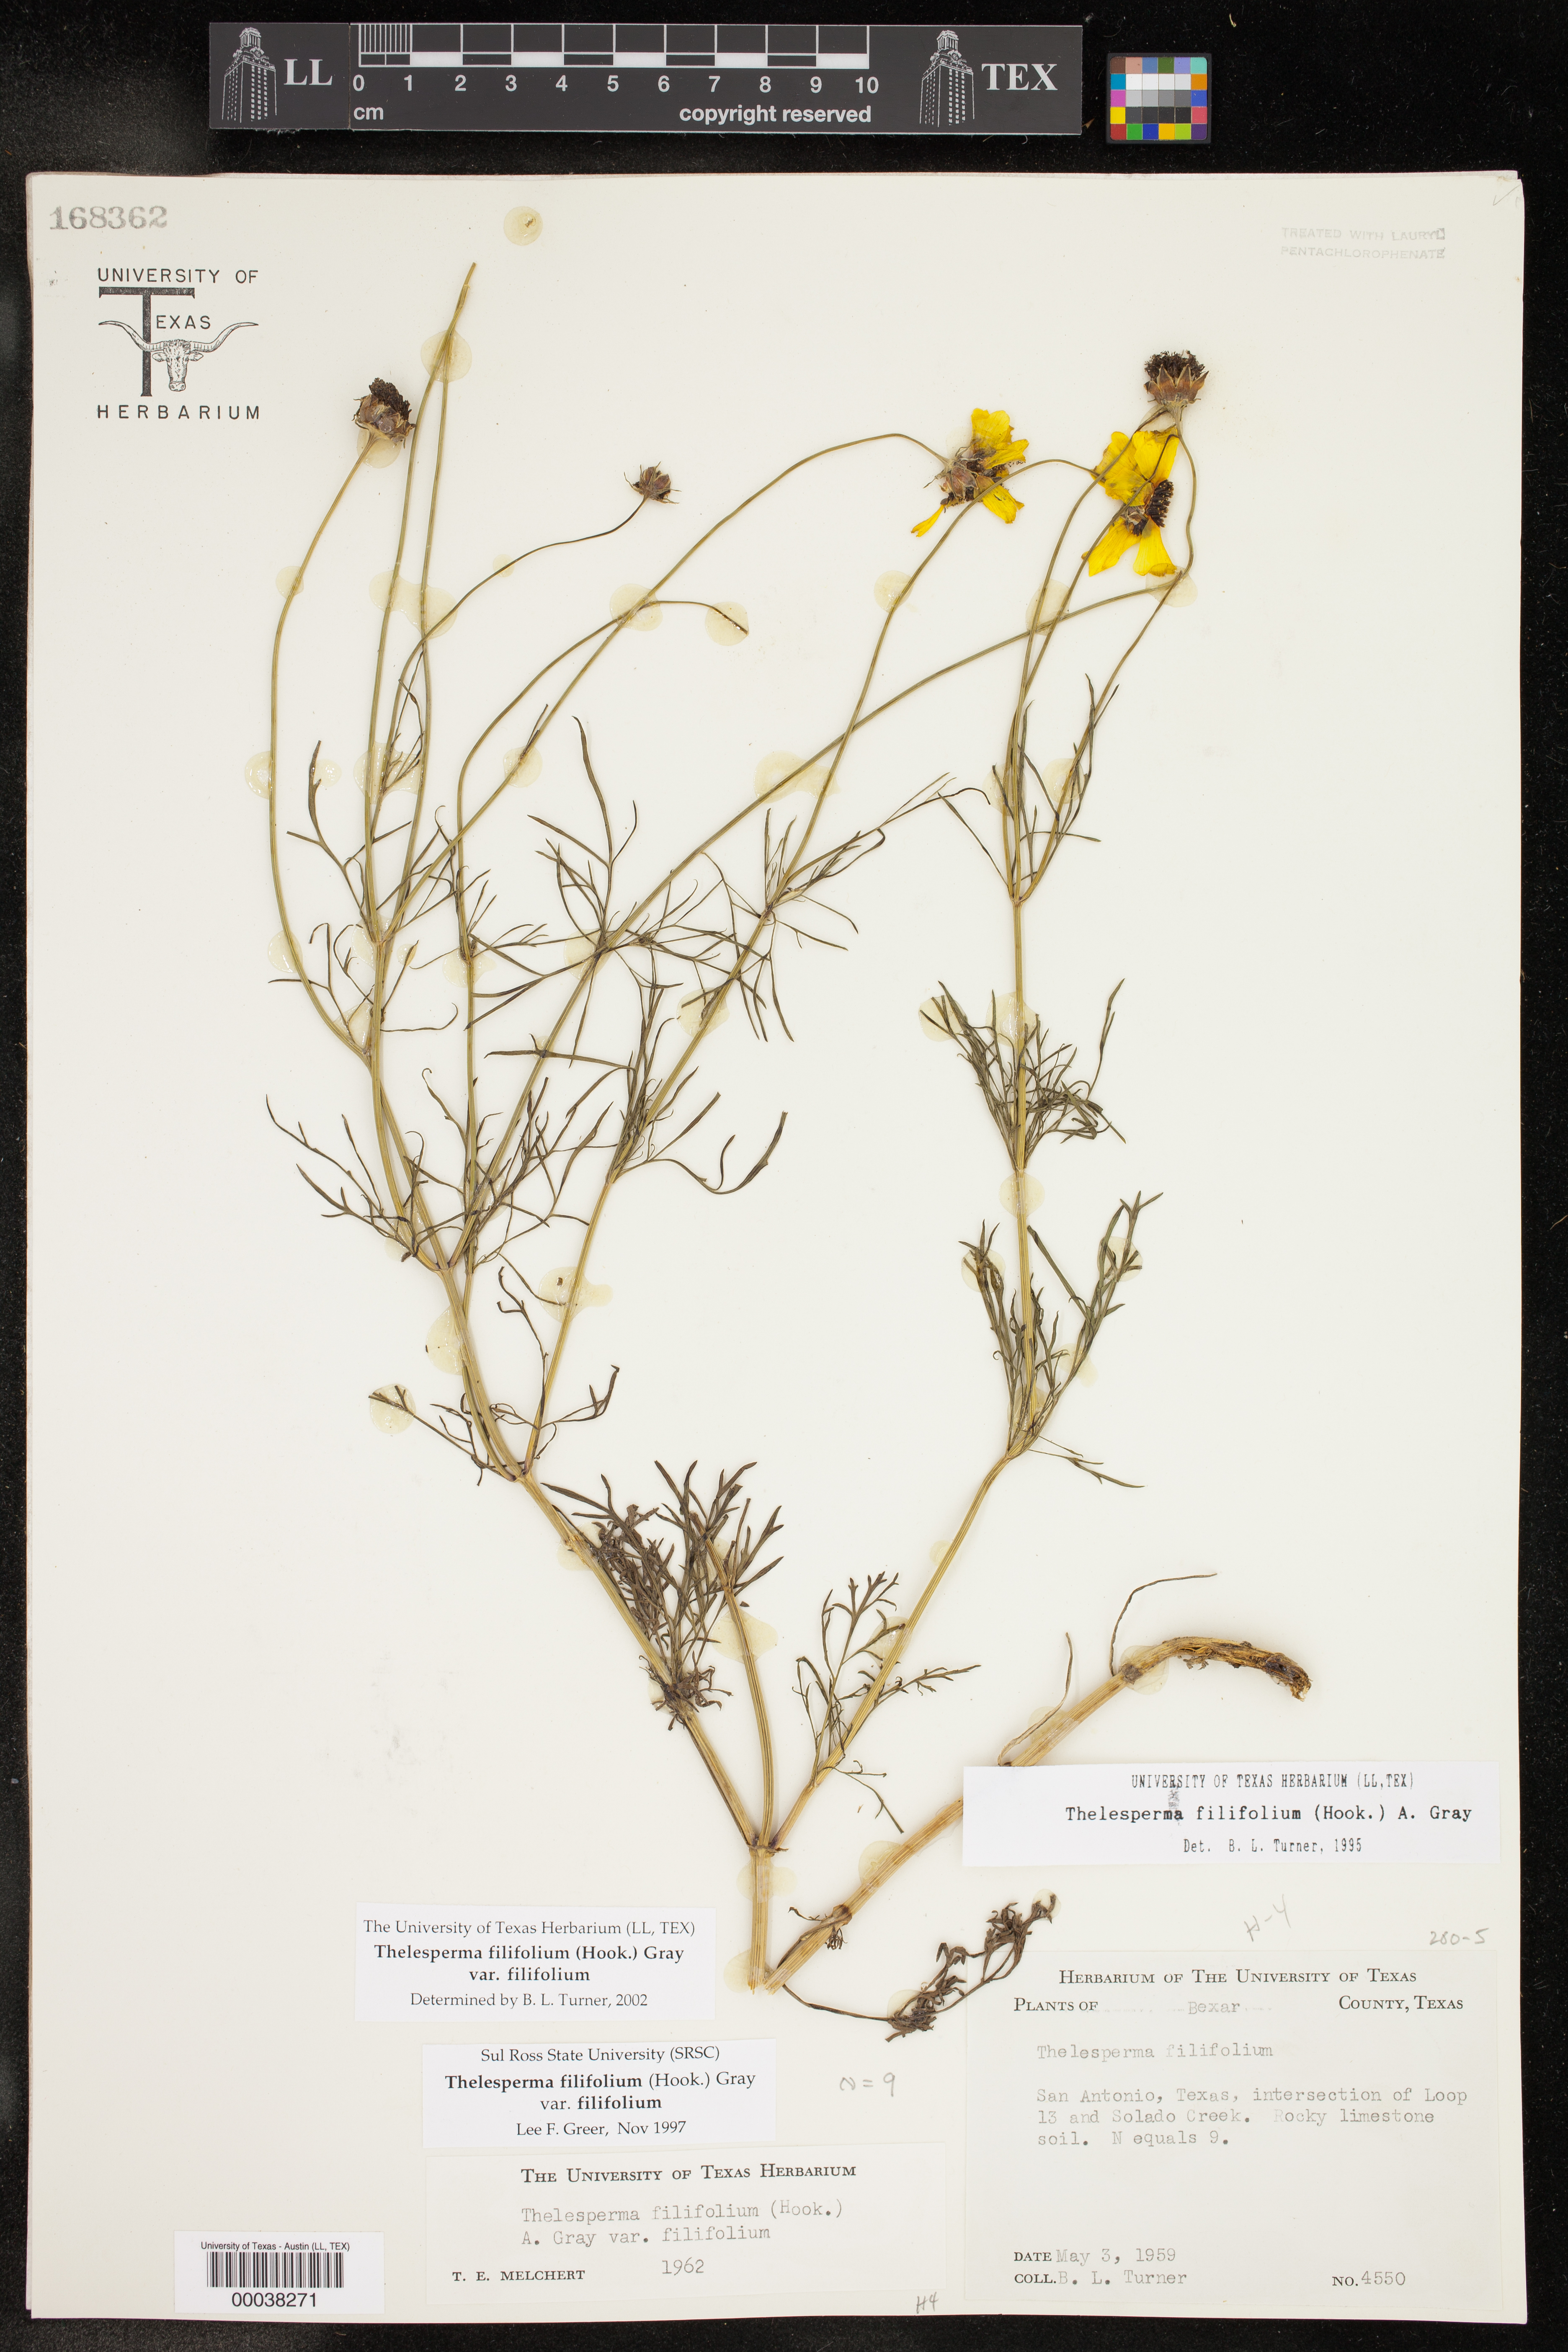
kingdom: Plantae
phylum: Tracheophyta
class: Magnoliopsida
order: Asterales
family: Asteraceae
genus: Thelesperma
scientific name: Thelesperma filifolium
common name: Stiff greenthread
